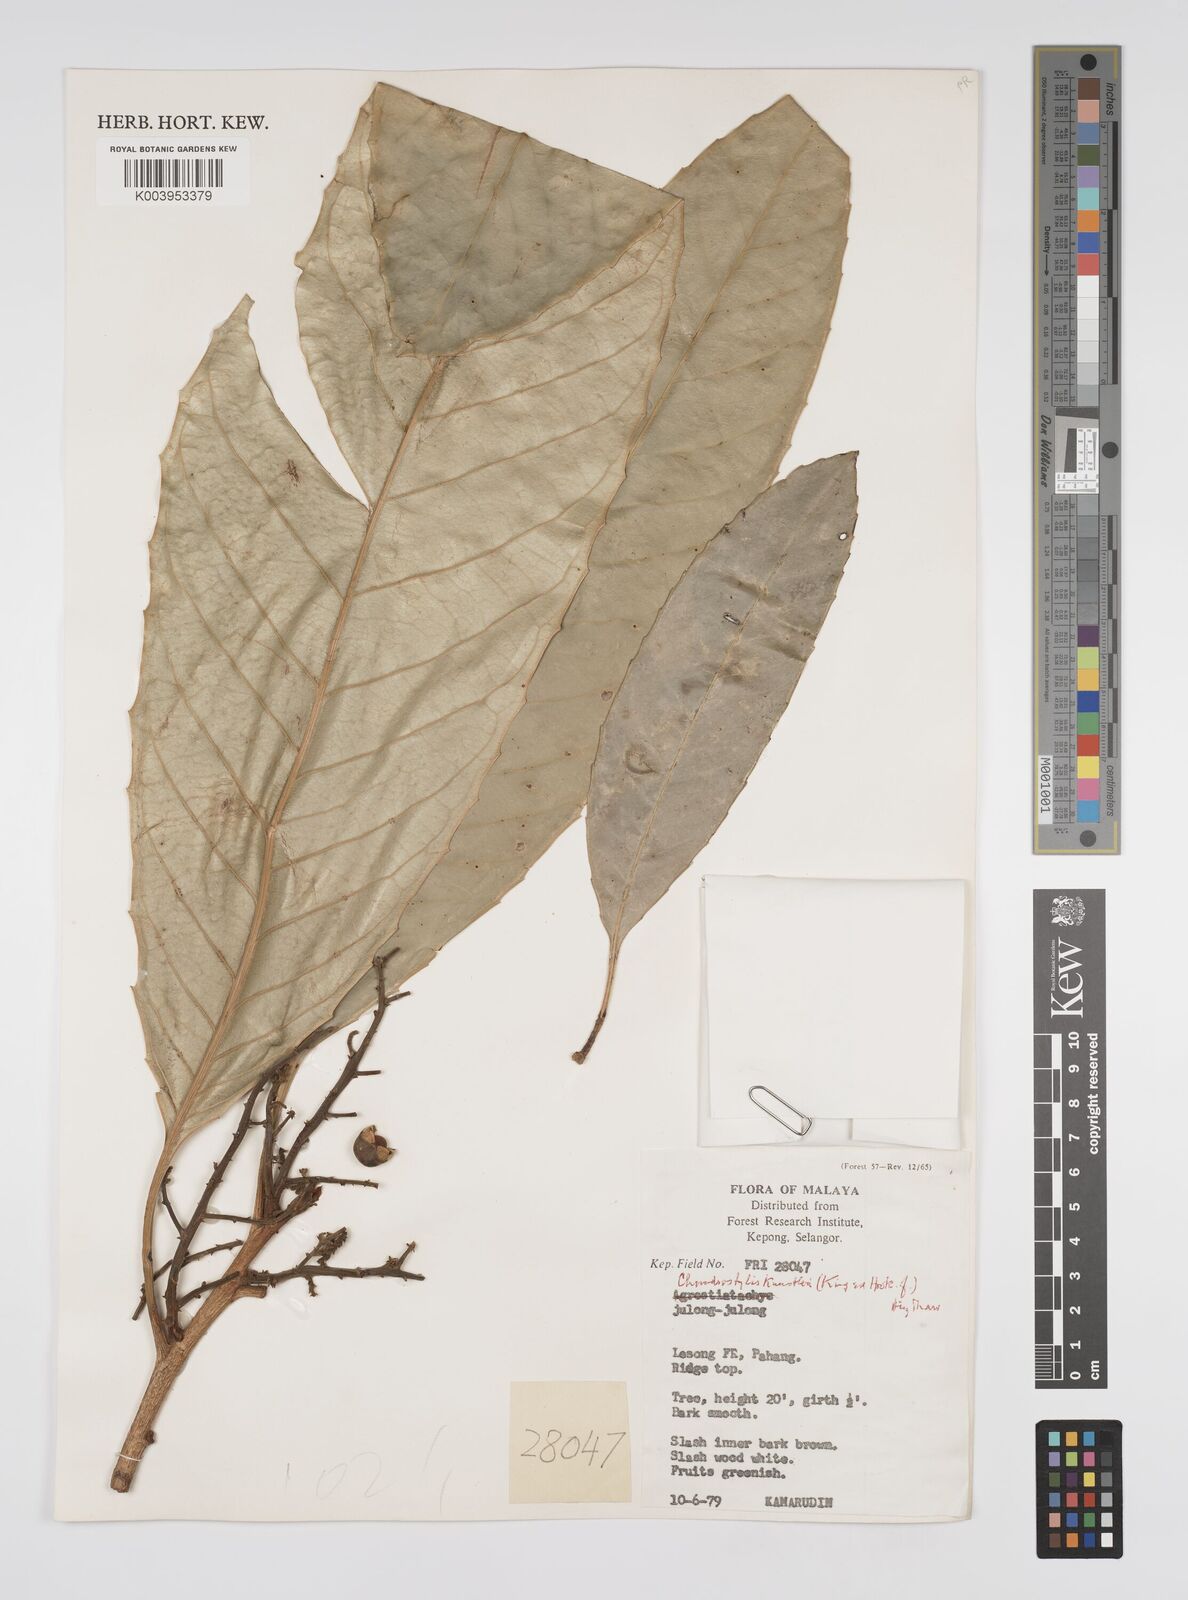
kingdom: Plantae
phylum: Tracheophyta
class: Magnoliopsida
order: Malpighiales
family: Euphorbiaceae
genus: Chondrostylis
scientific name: Chondrostylis kunstleri
